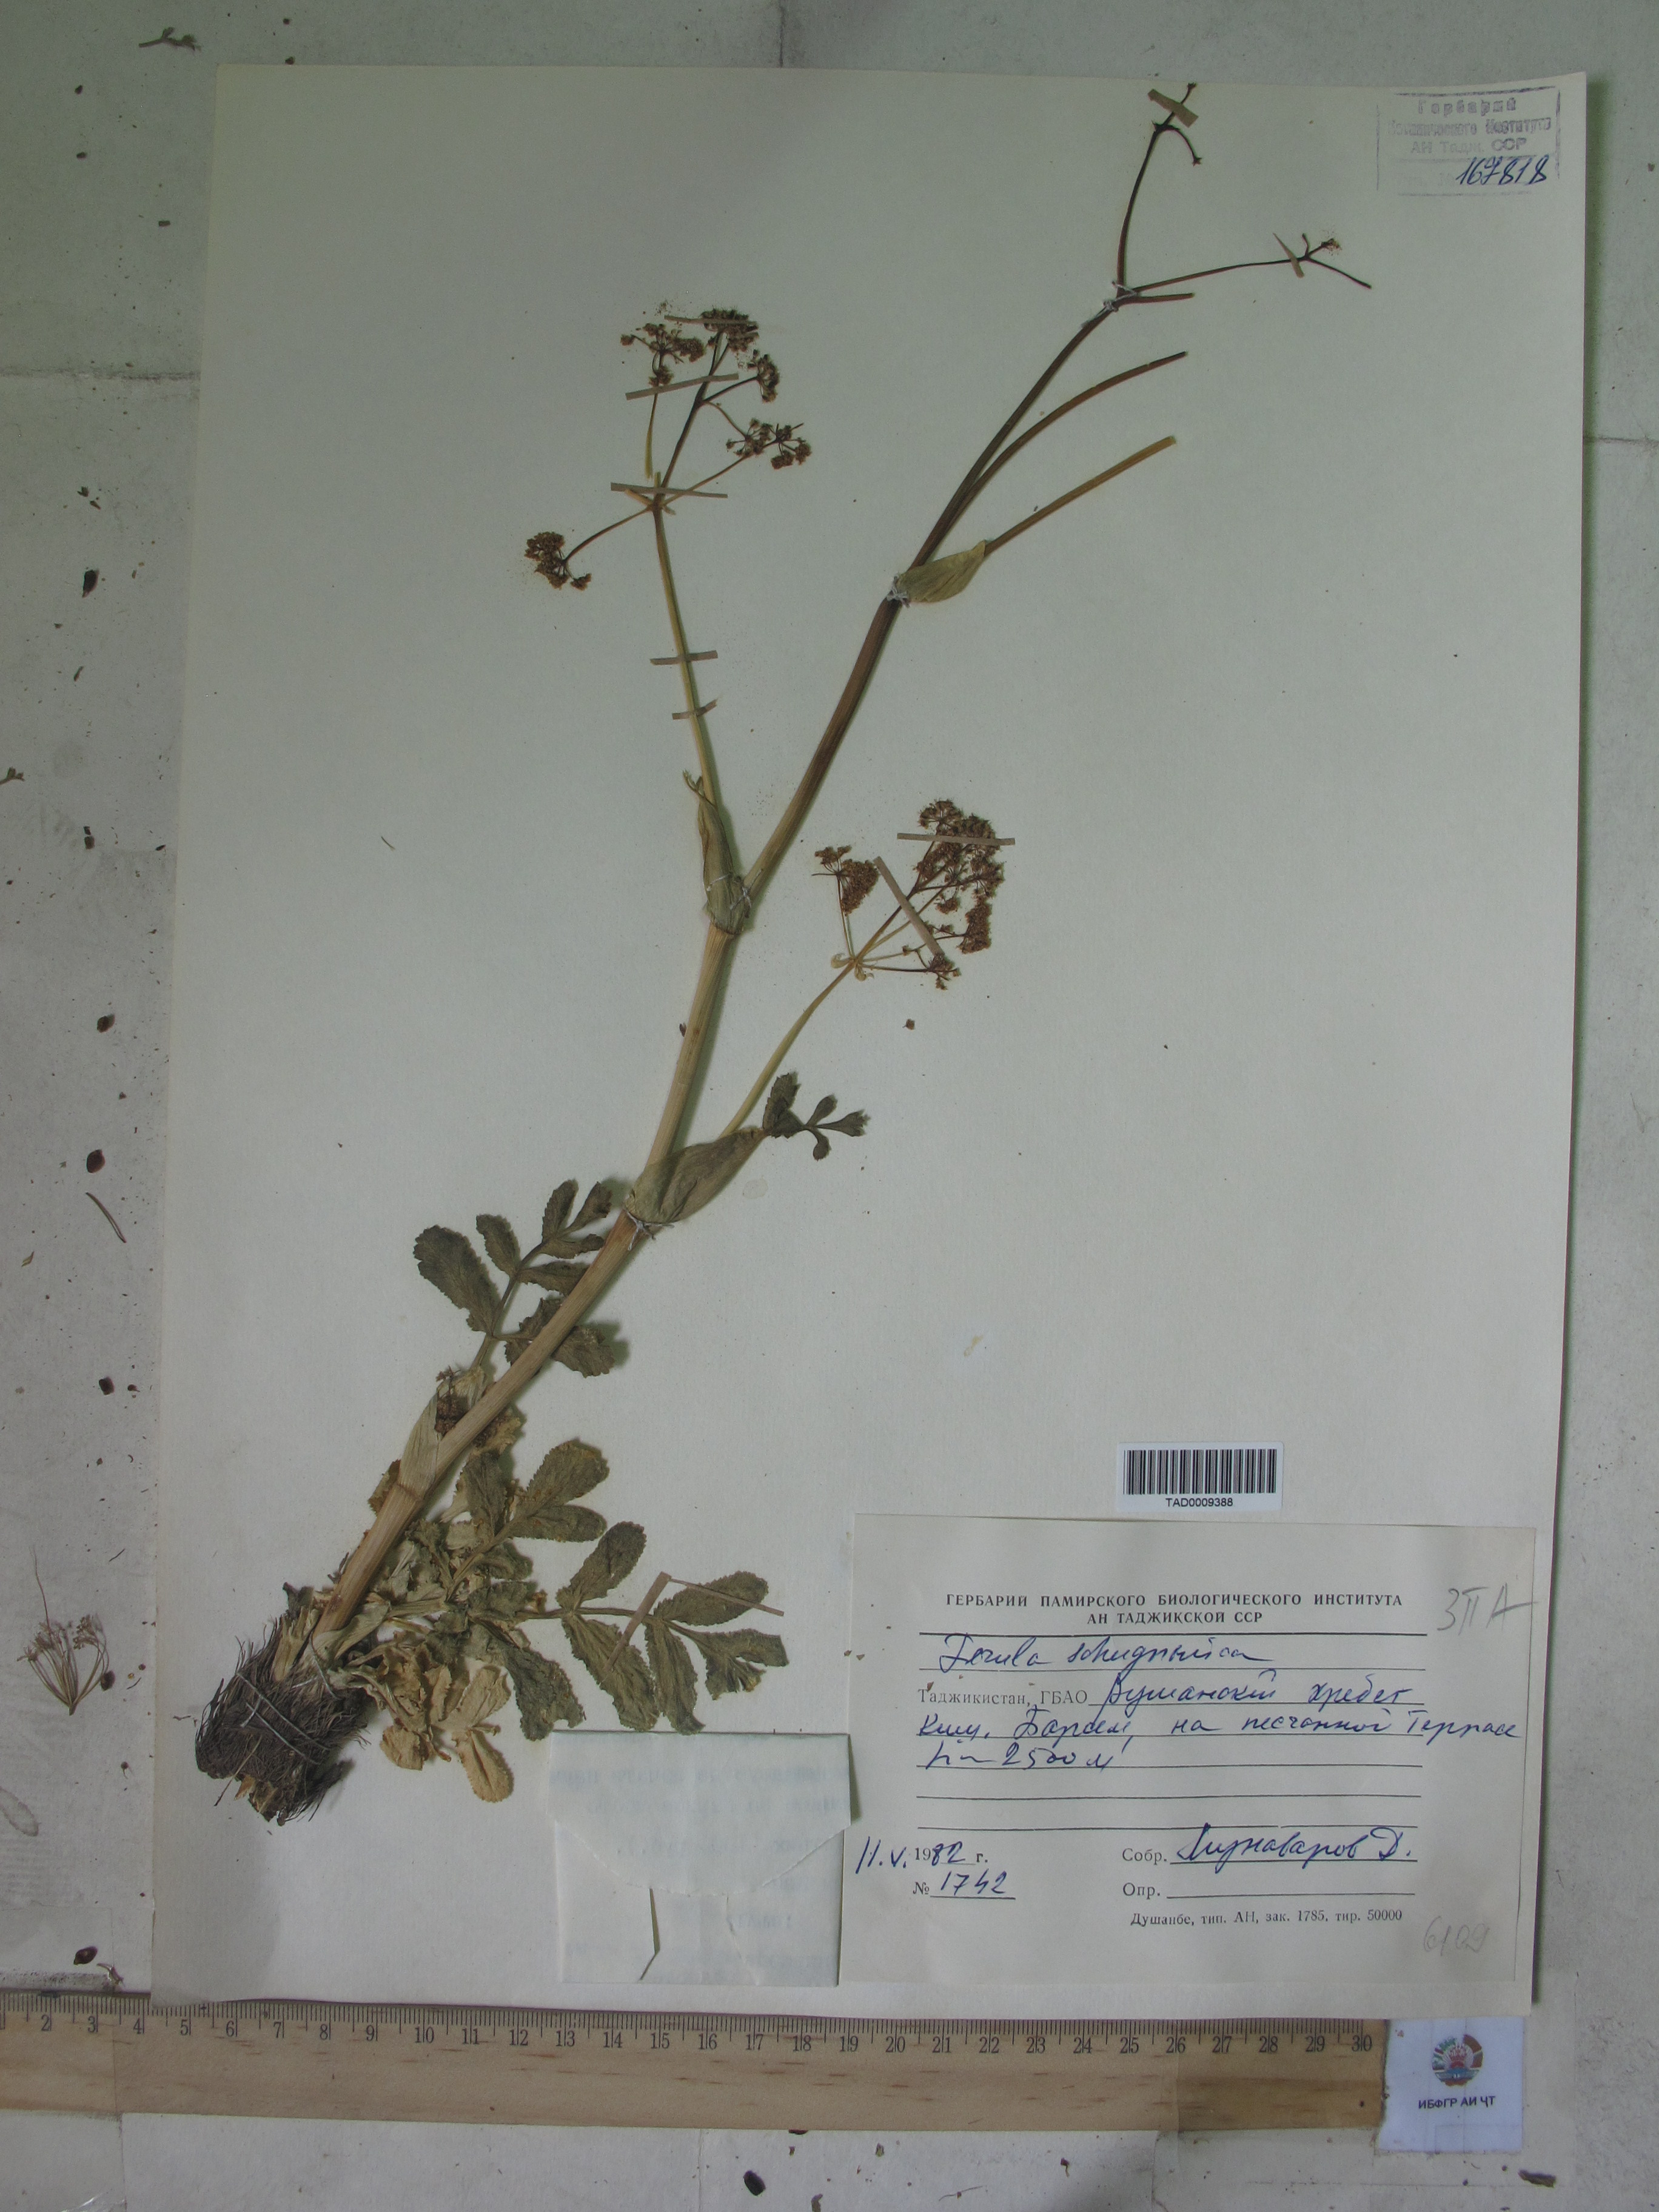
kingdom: Plantae
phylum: Tracheophyta
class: Magnoliopsida
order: Apiales
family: Apiaceae
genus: Ferula
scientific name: Ferula kokanica
